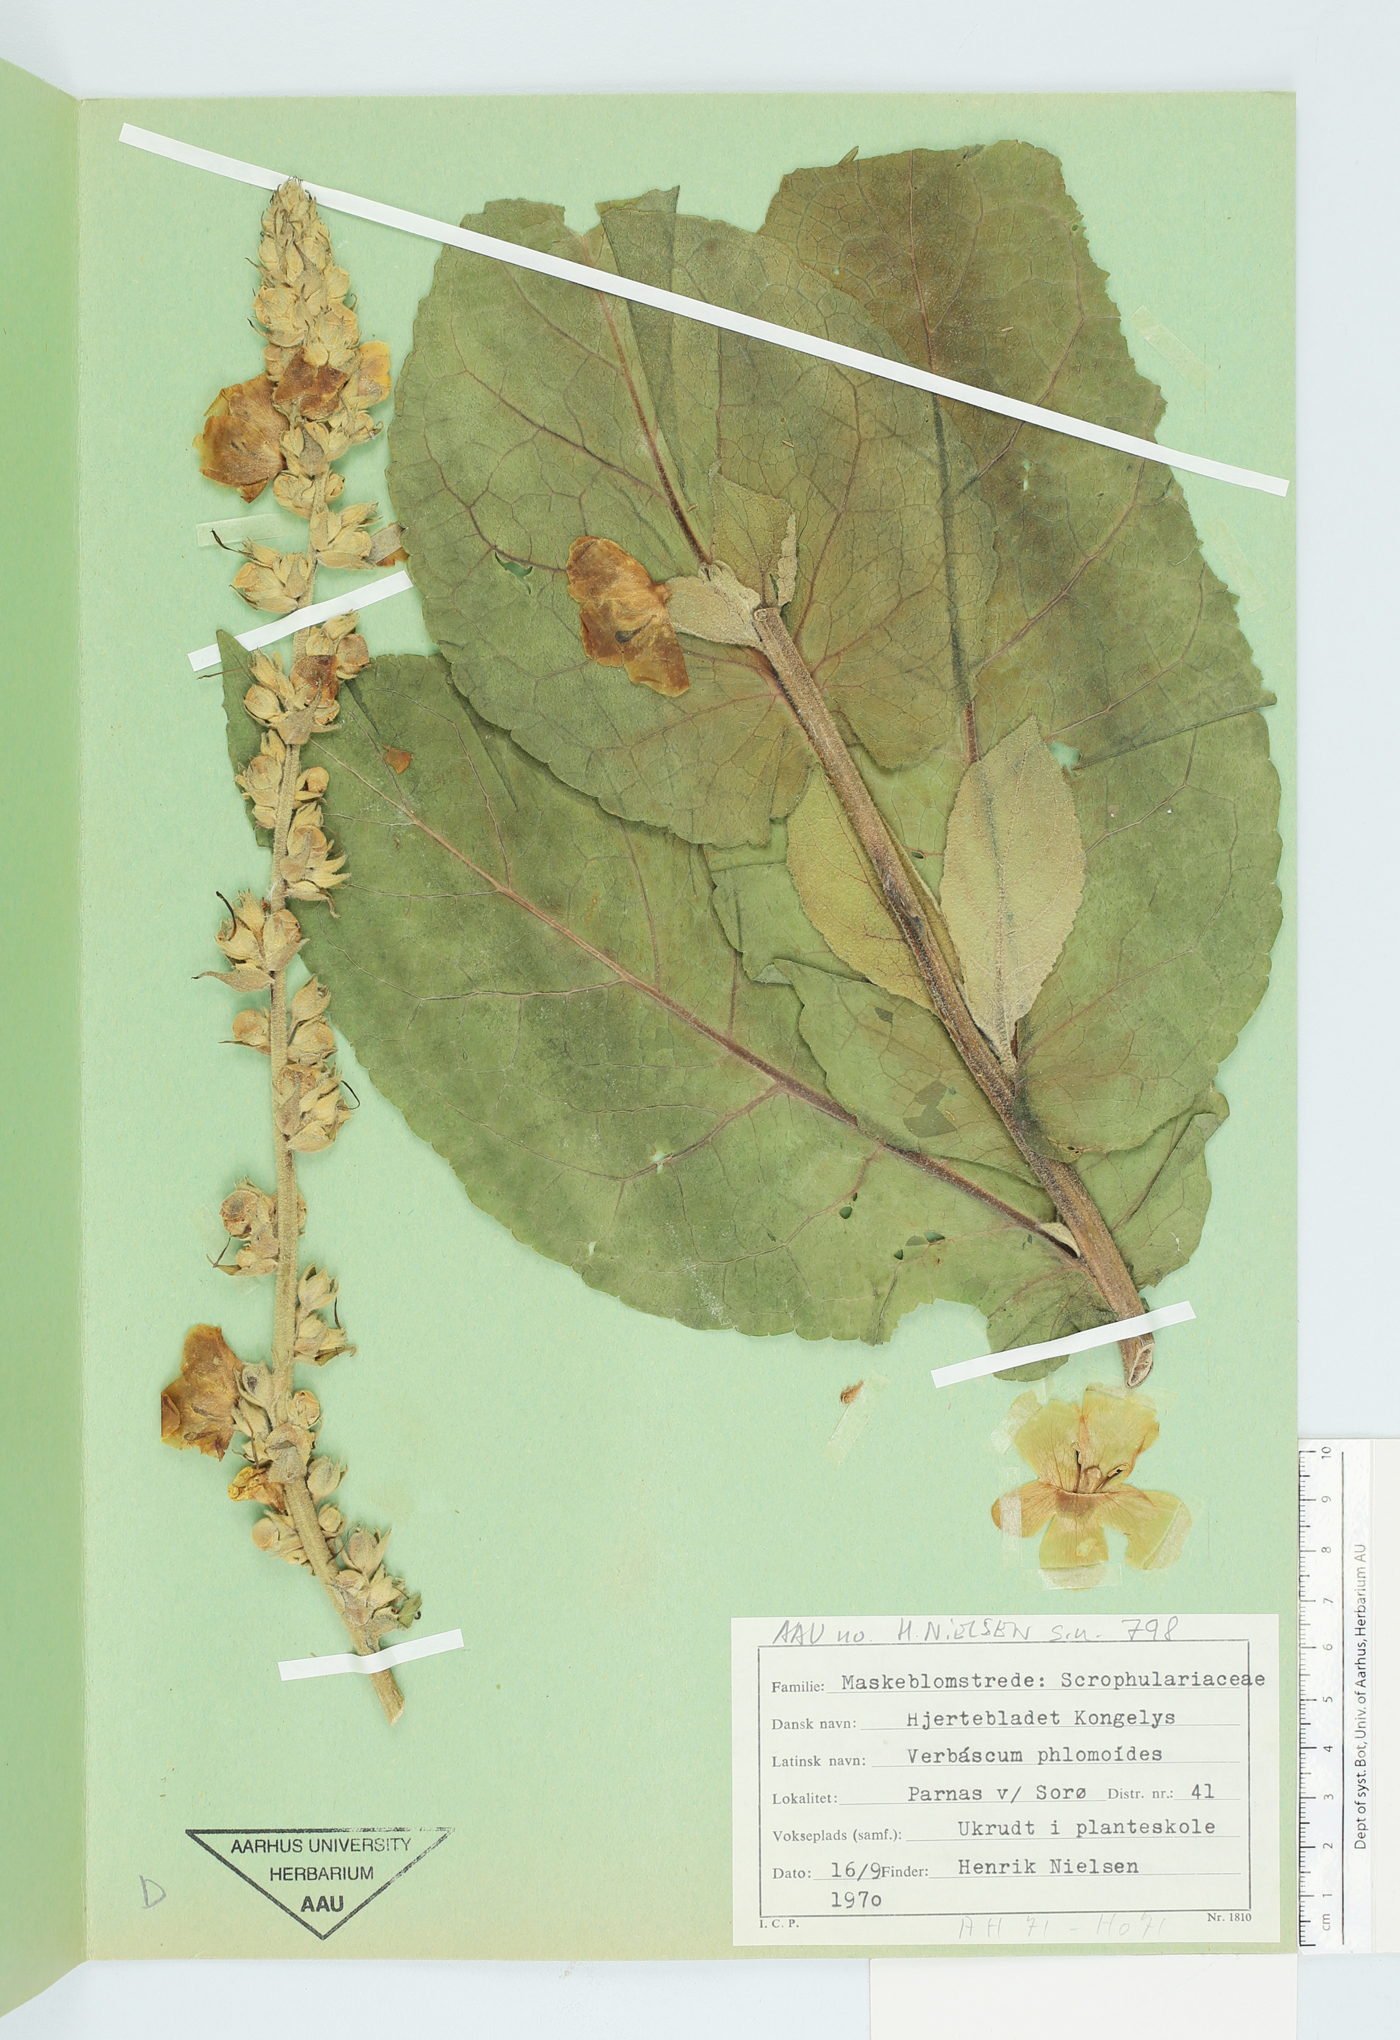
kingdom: Plantae
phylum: Tracheophyta
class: Magnoliopsida
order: Lamiales
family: Scrophulariaceae
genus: Verbascum
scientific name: Verbascum phlomoides
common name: Orange mullein
